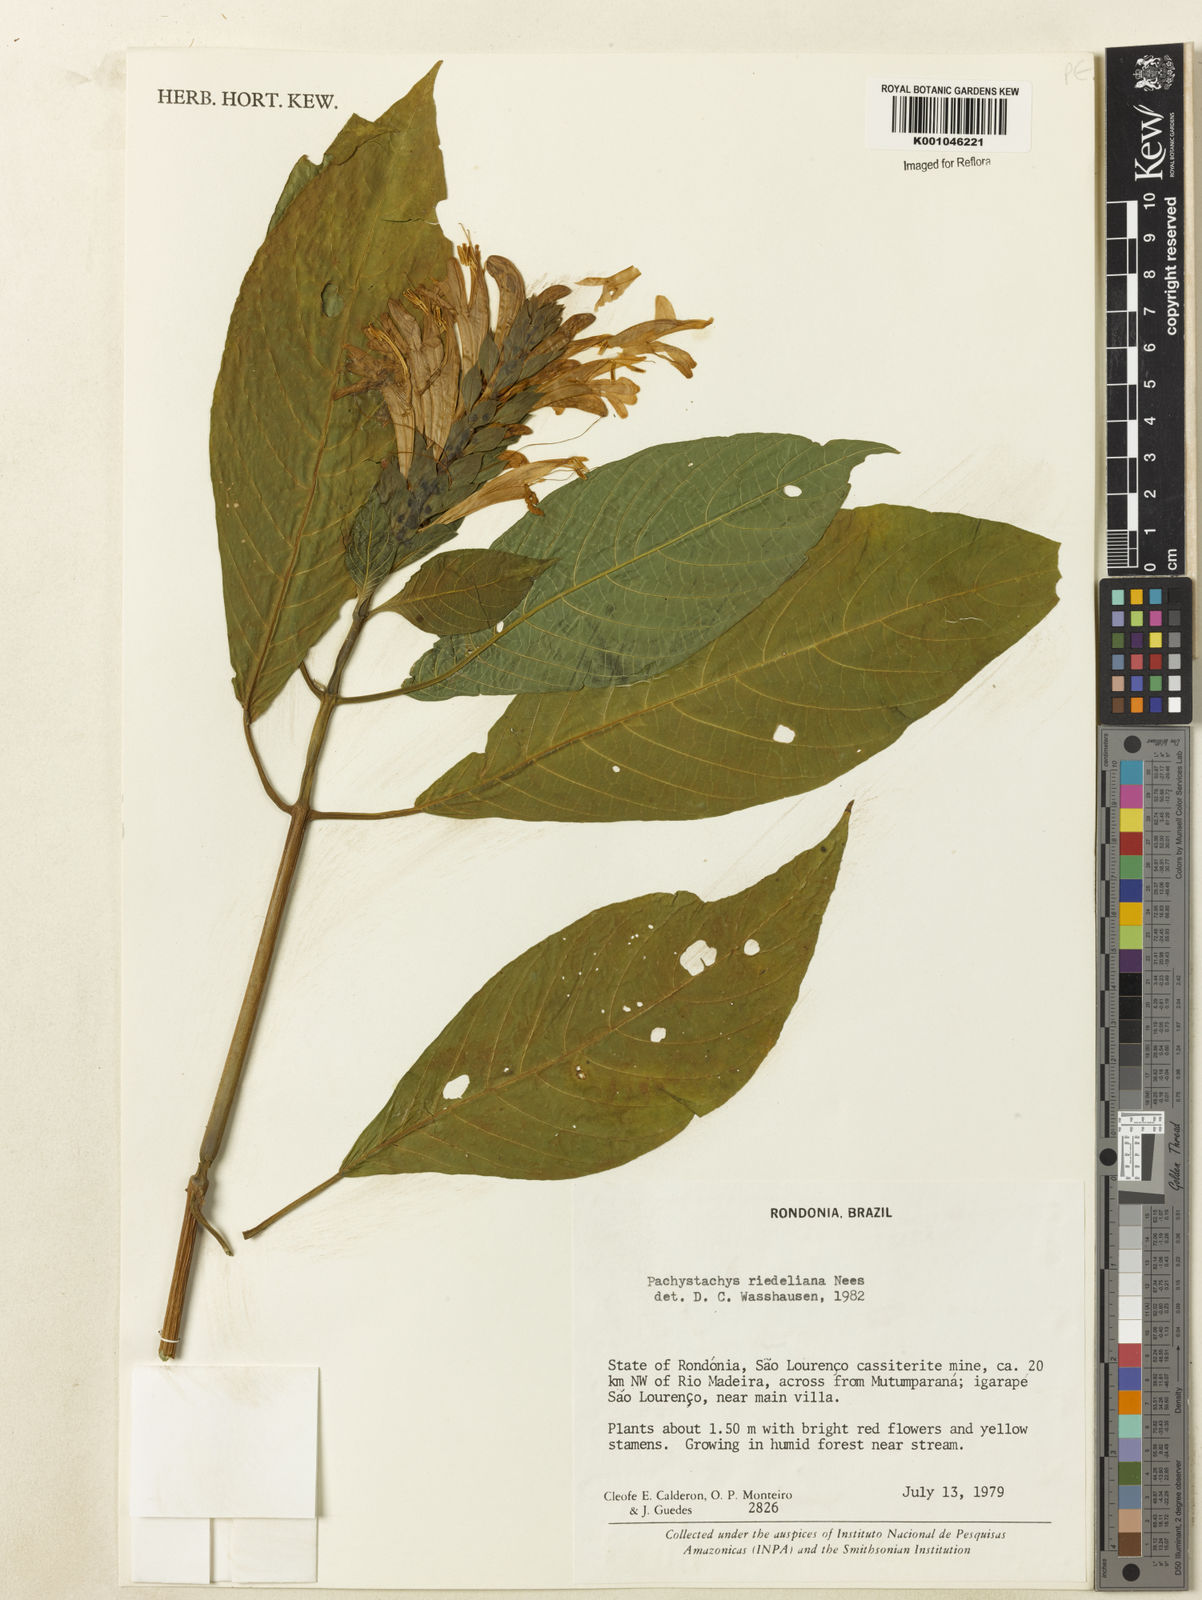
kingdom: Plantae
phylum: Tracheophyta
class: Magnoliopsida
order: Lamiales
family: Acanthaceae
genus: Pachystachys
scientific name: Pachystachys spicata
